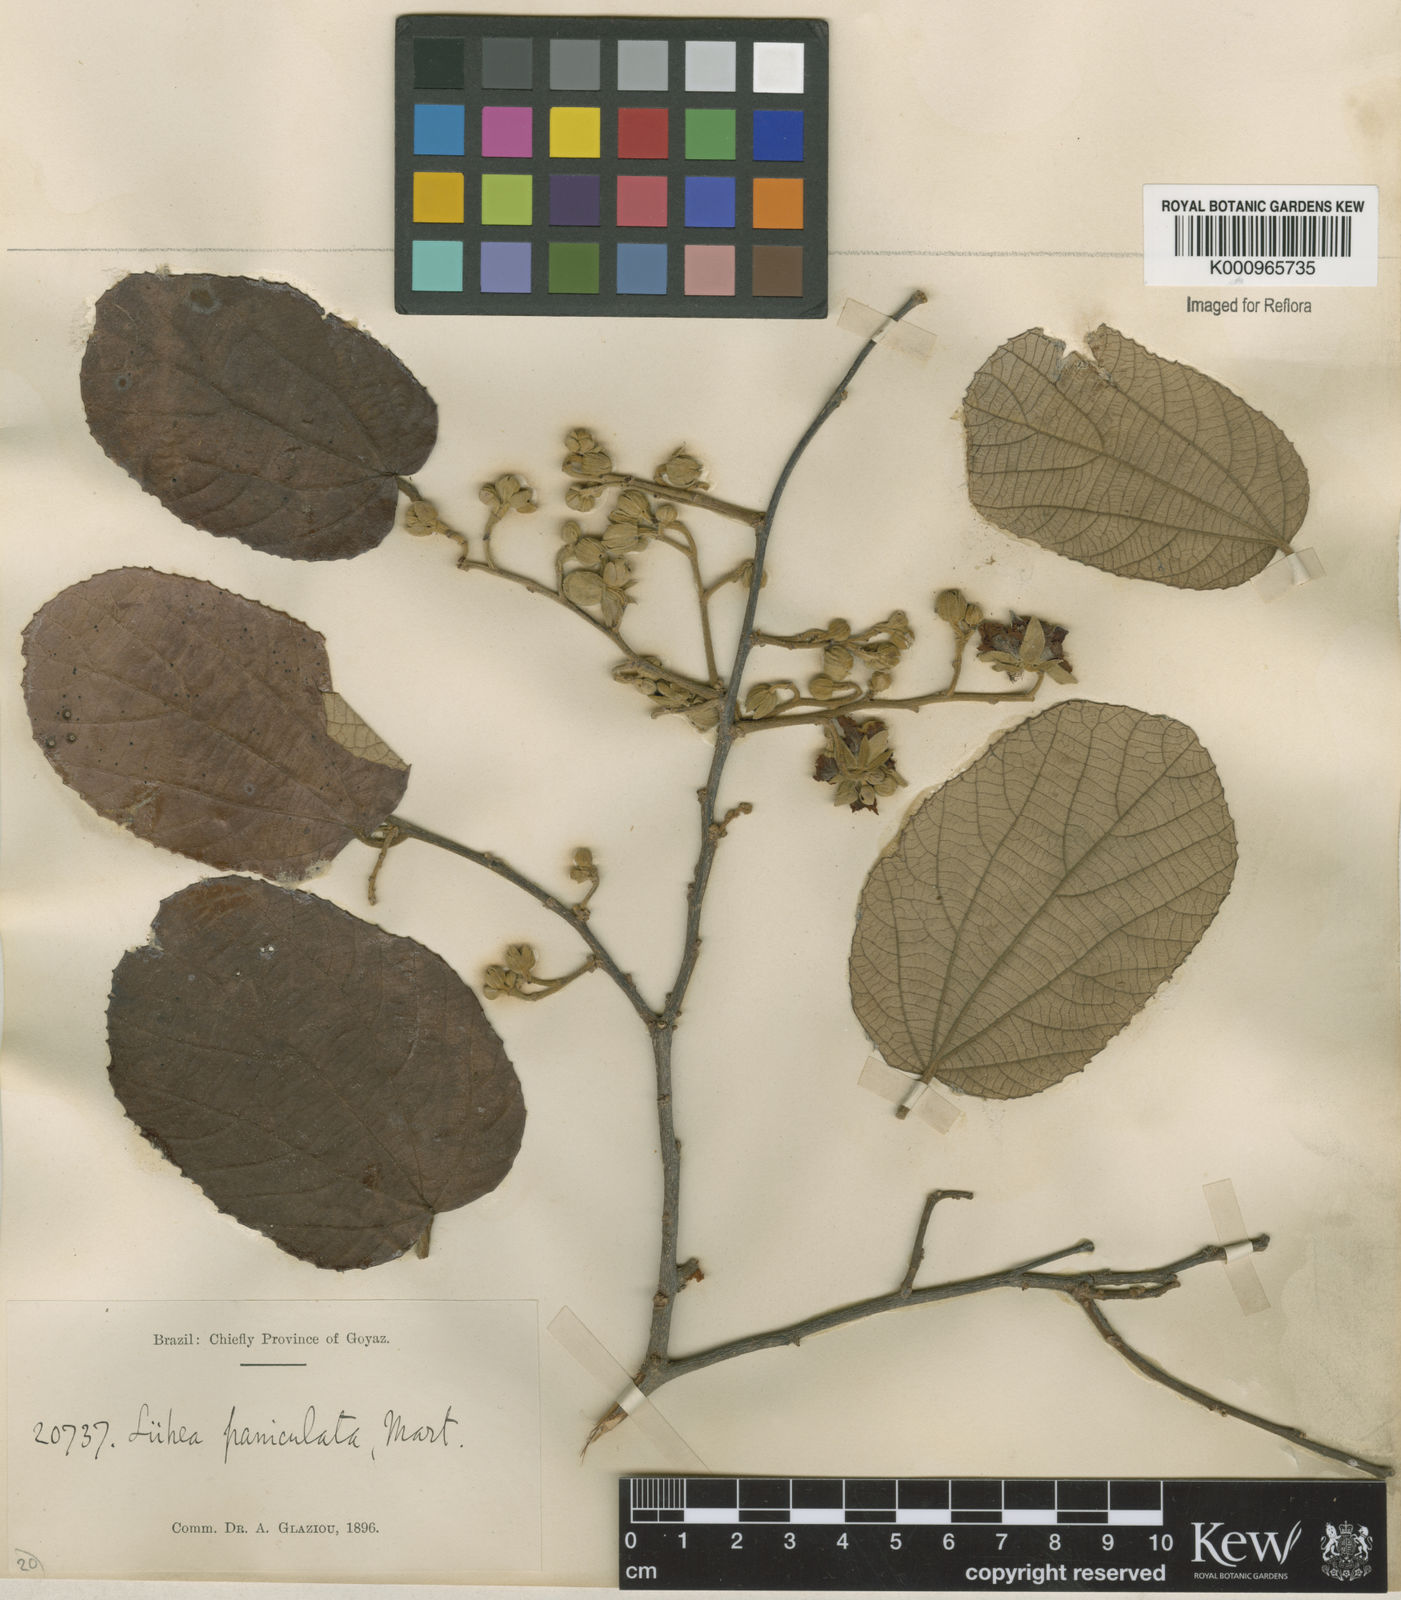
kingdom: Plantae
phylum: Tracheophyta
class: Magnoliopsida
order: Malvales
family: Malvaceae
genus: Luehea
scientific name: Luehea paniculata
